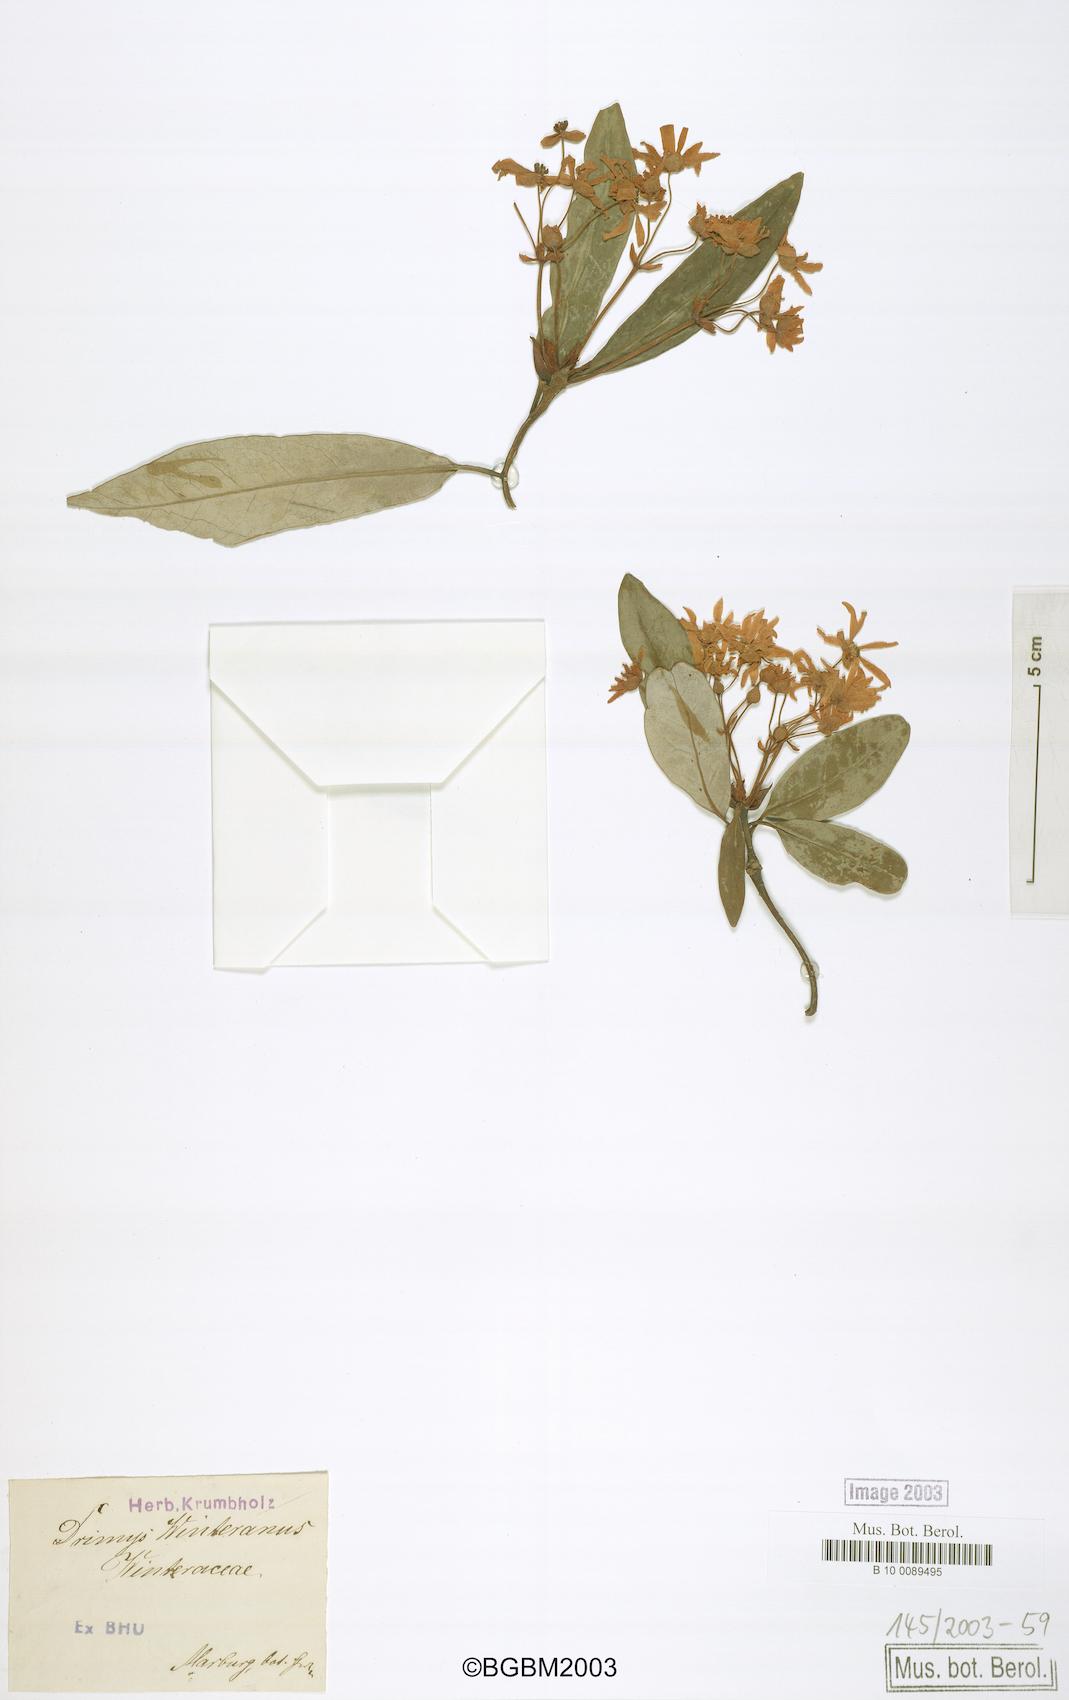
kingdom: Plantae
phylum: Tracheophyta
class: Magnoliopsida
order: Canellales
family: Winteraceae
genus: Drimys
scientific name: Drimys winteri
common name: Winter's-bark
